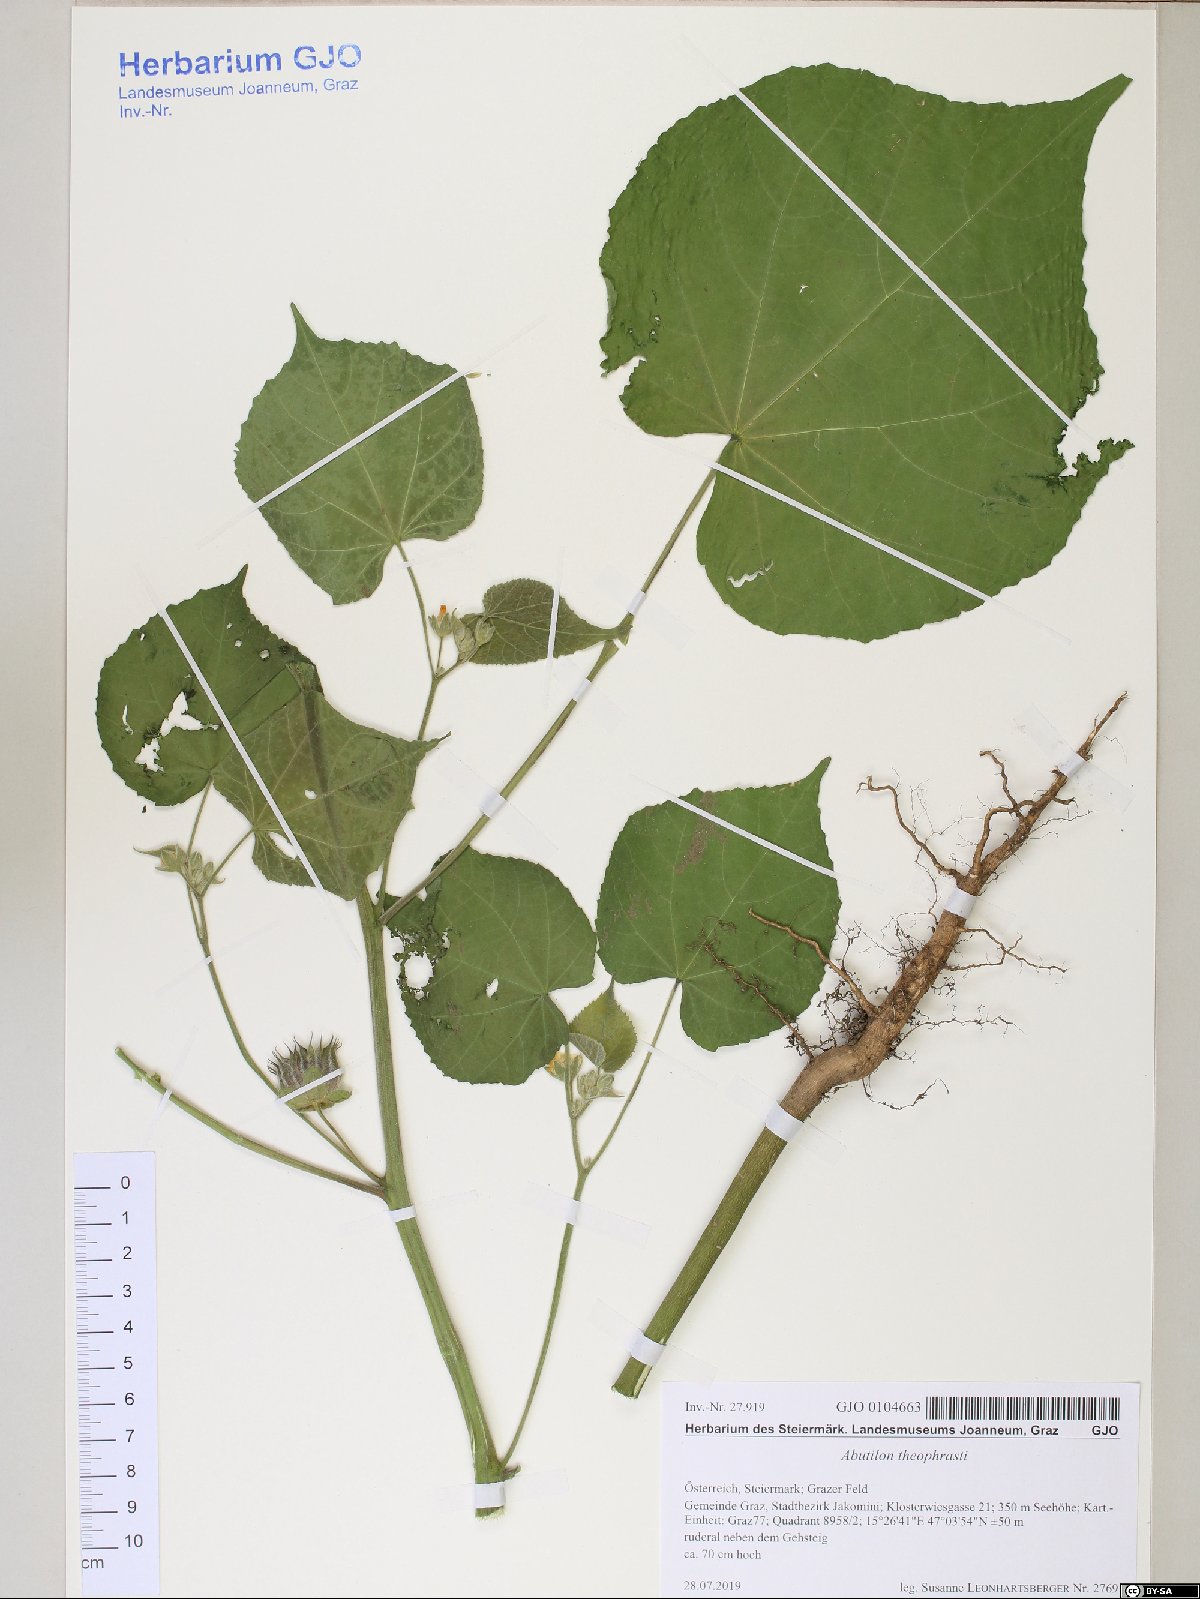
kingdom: Plantae
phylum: Tracheophyta
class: Magnoliopsida
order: Malvales
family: Malvaceae
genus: Abutilon
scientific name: Abutilon theophrasti
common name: Velvetleaf
